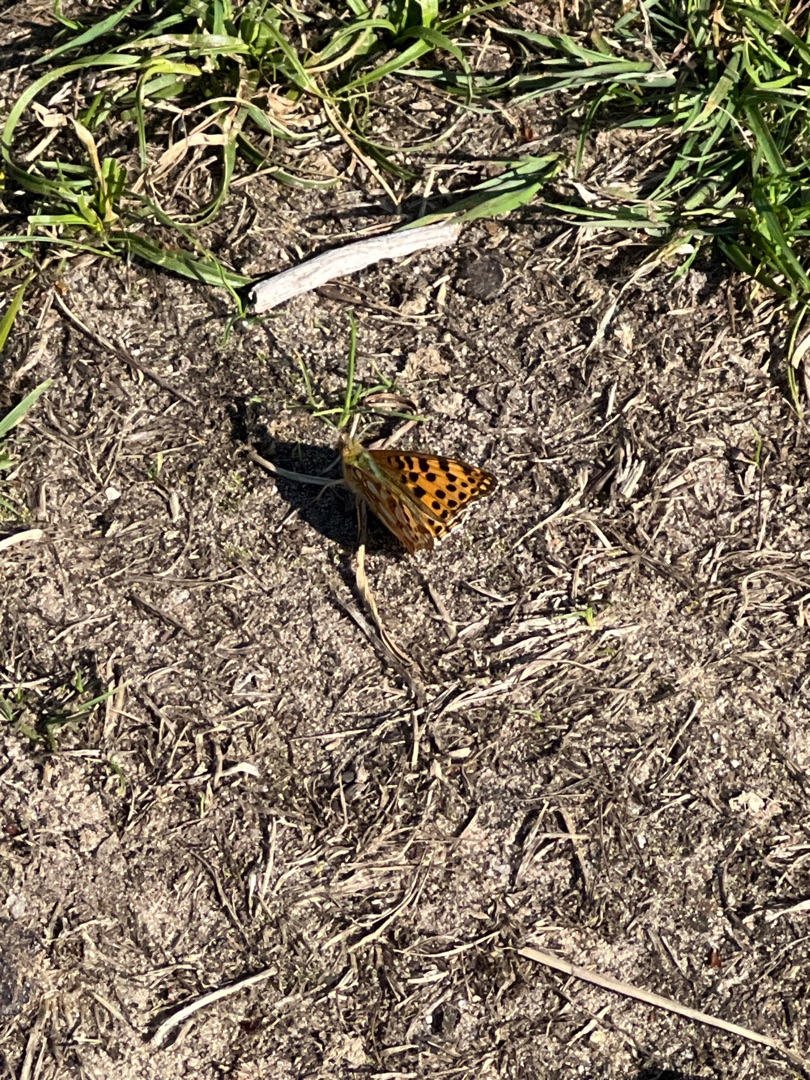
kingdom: Animalia
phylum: Arthropoda
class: Insecta
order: Lepidoptera
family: Nymphalidae
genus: Issoria
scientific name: Issoria lathonia
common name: Storplettet perlemorsommerfugl
